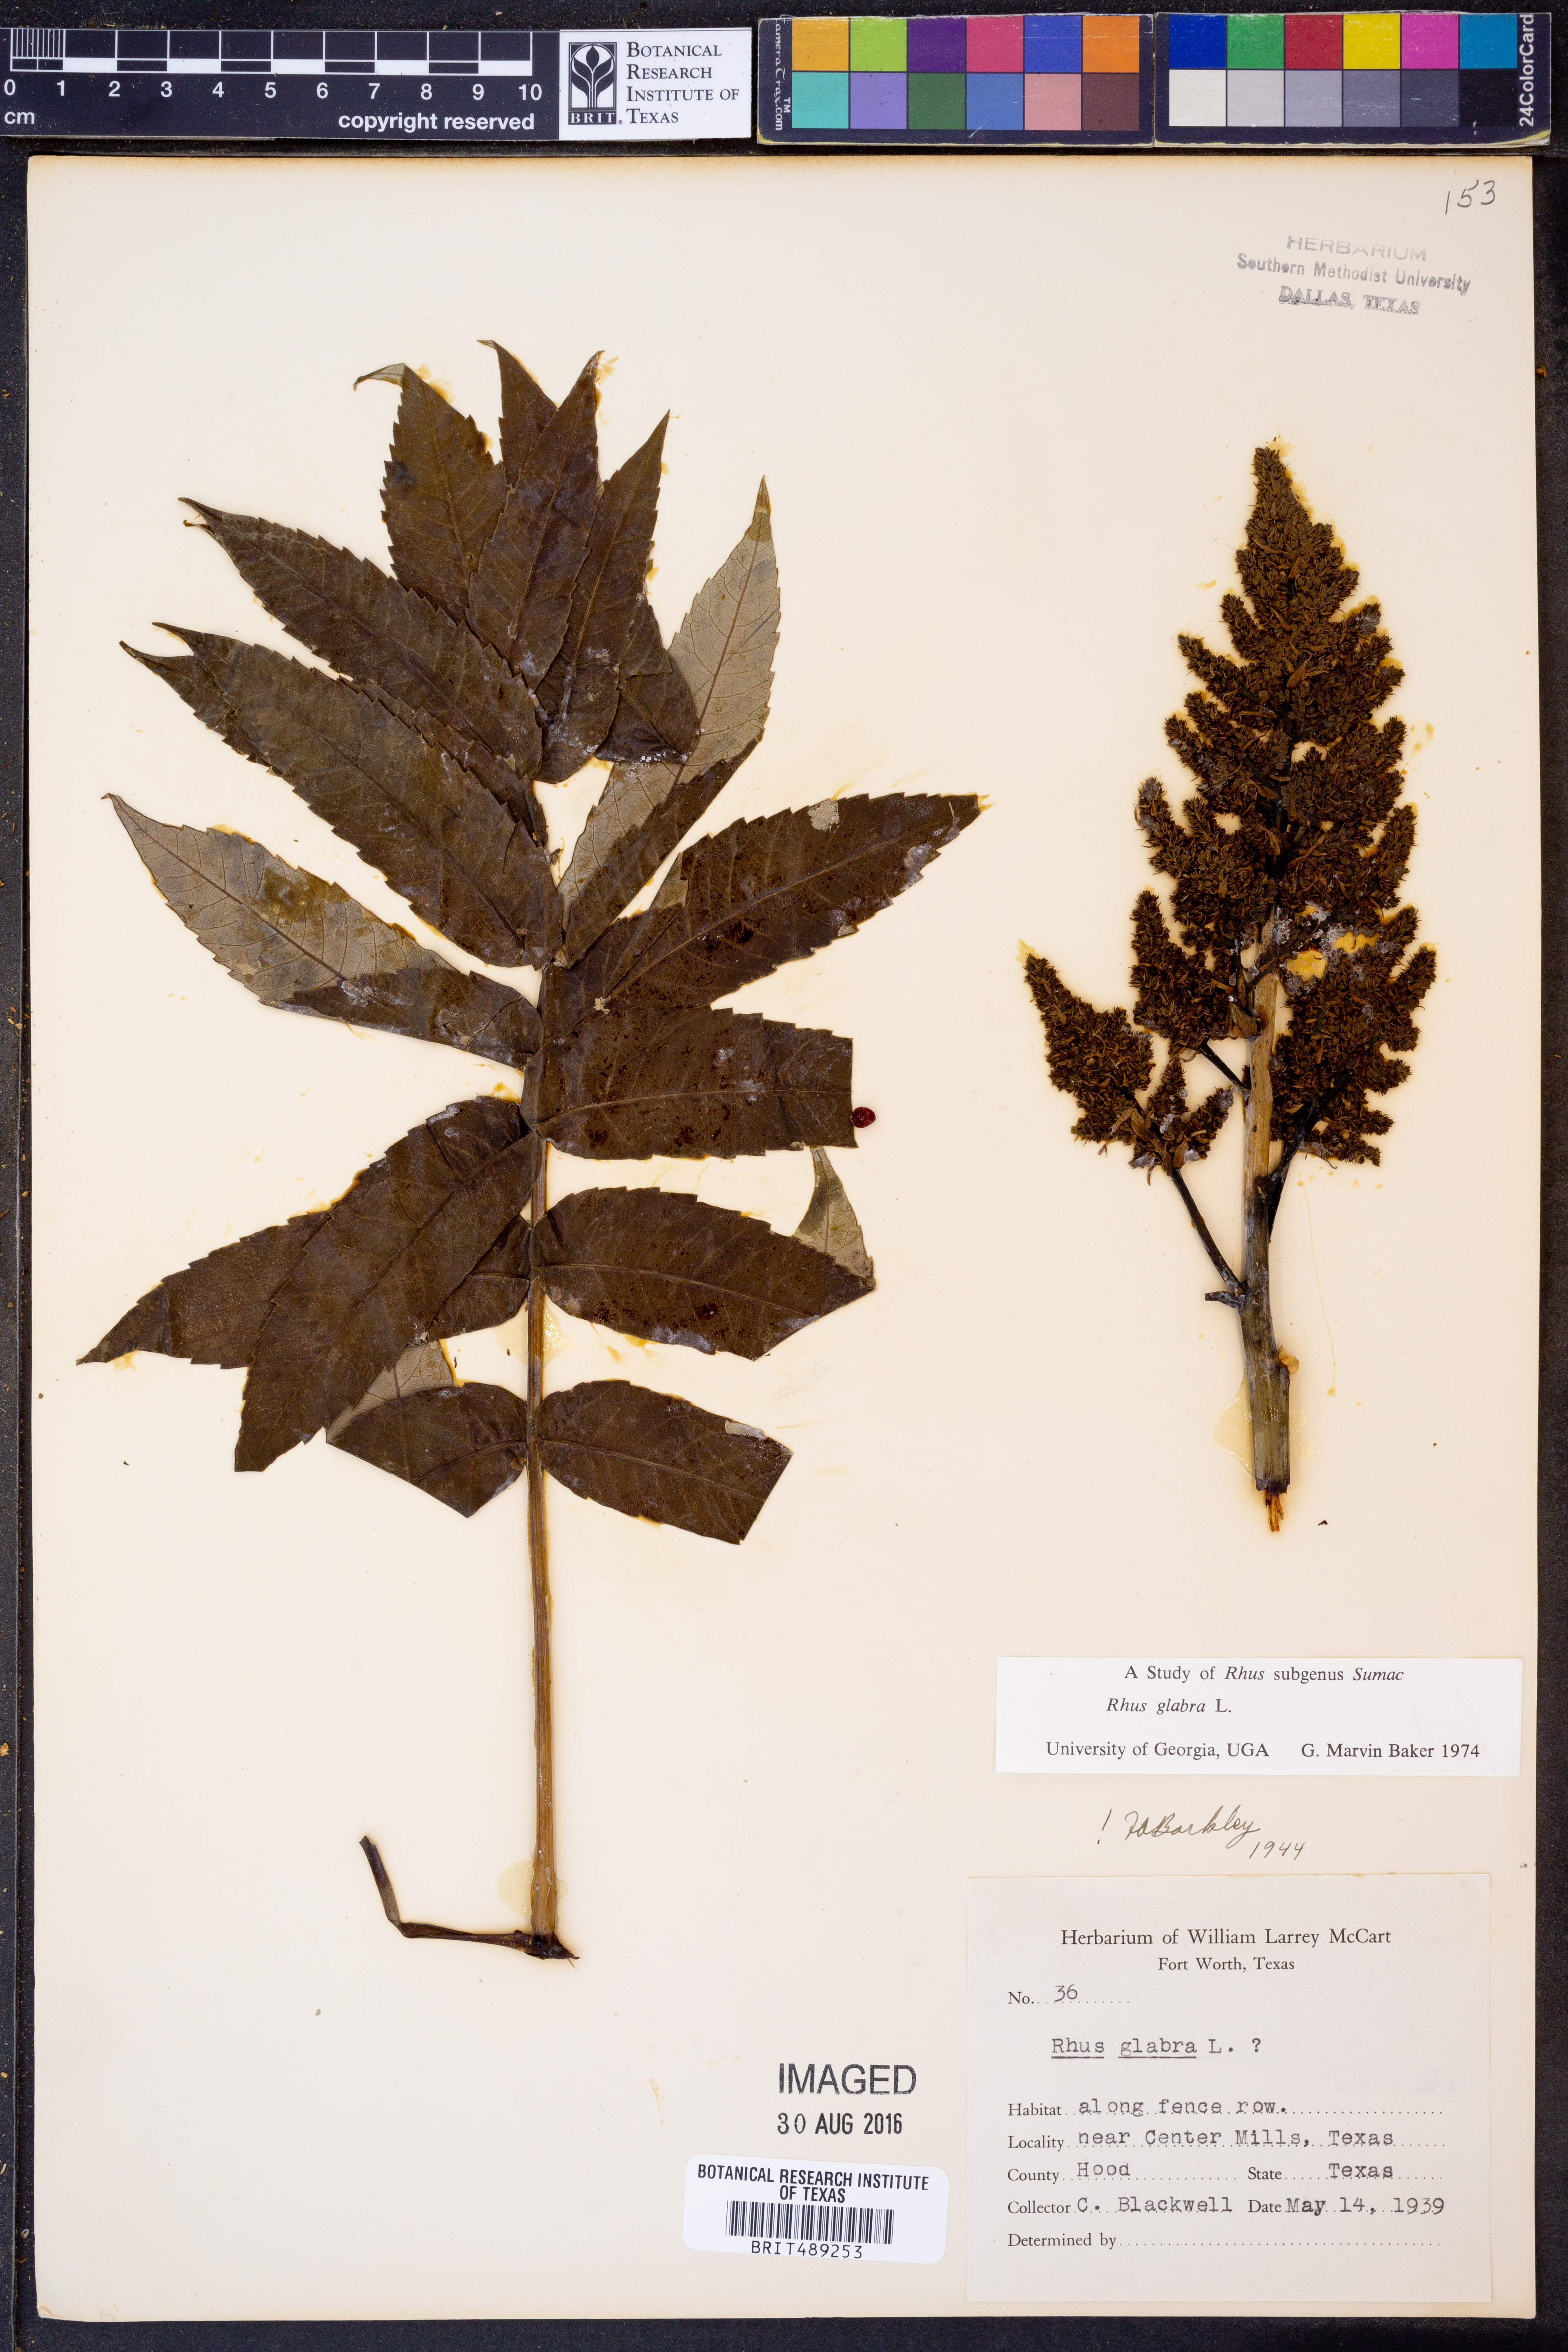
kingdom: Plantae
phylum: Tracheophyta
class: Magnoliopsida
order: Sapindales
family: Anacardiaceae
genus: Rhus
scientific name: Rhus glabra
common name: Scarlet sumac
